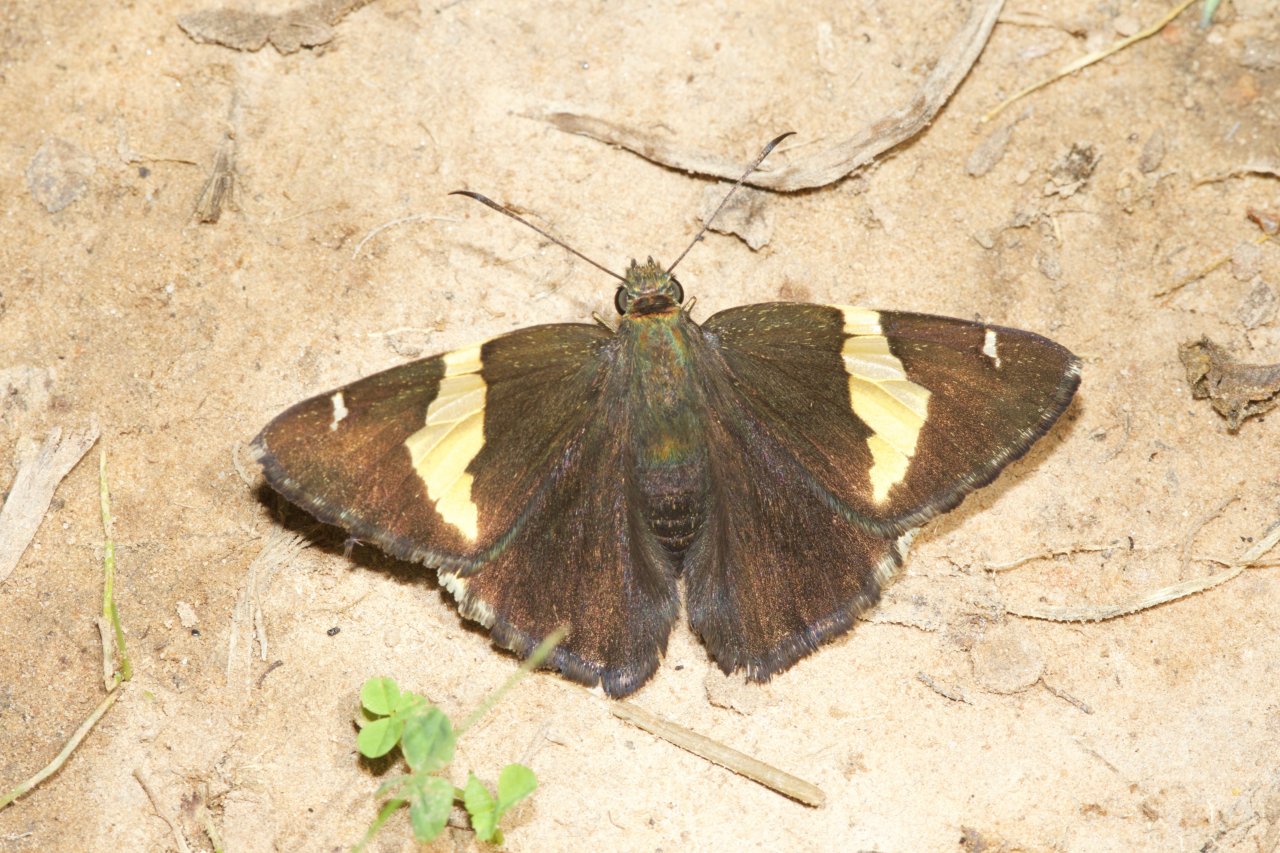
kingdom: Animalia
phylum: Arthropoda
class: Insecta
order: Lepidoptera
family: Hesperiidae
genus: Autochton
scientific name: Autochton cellus
